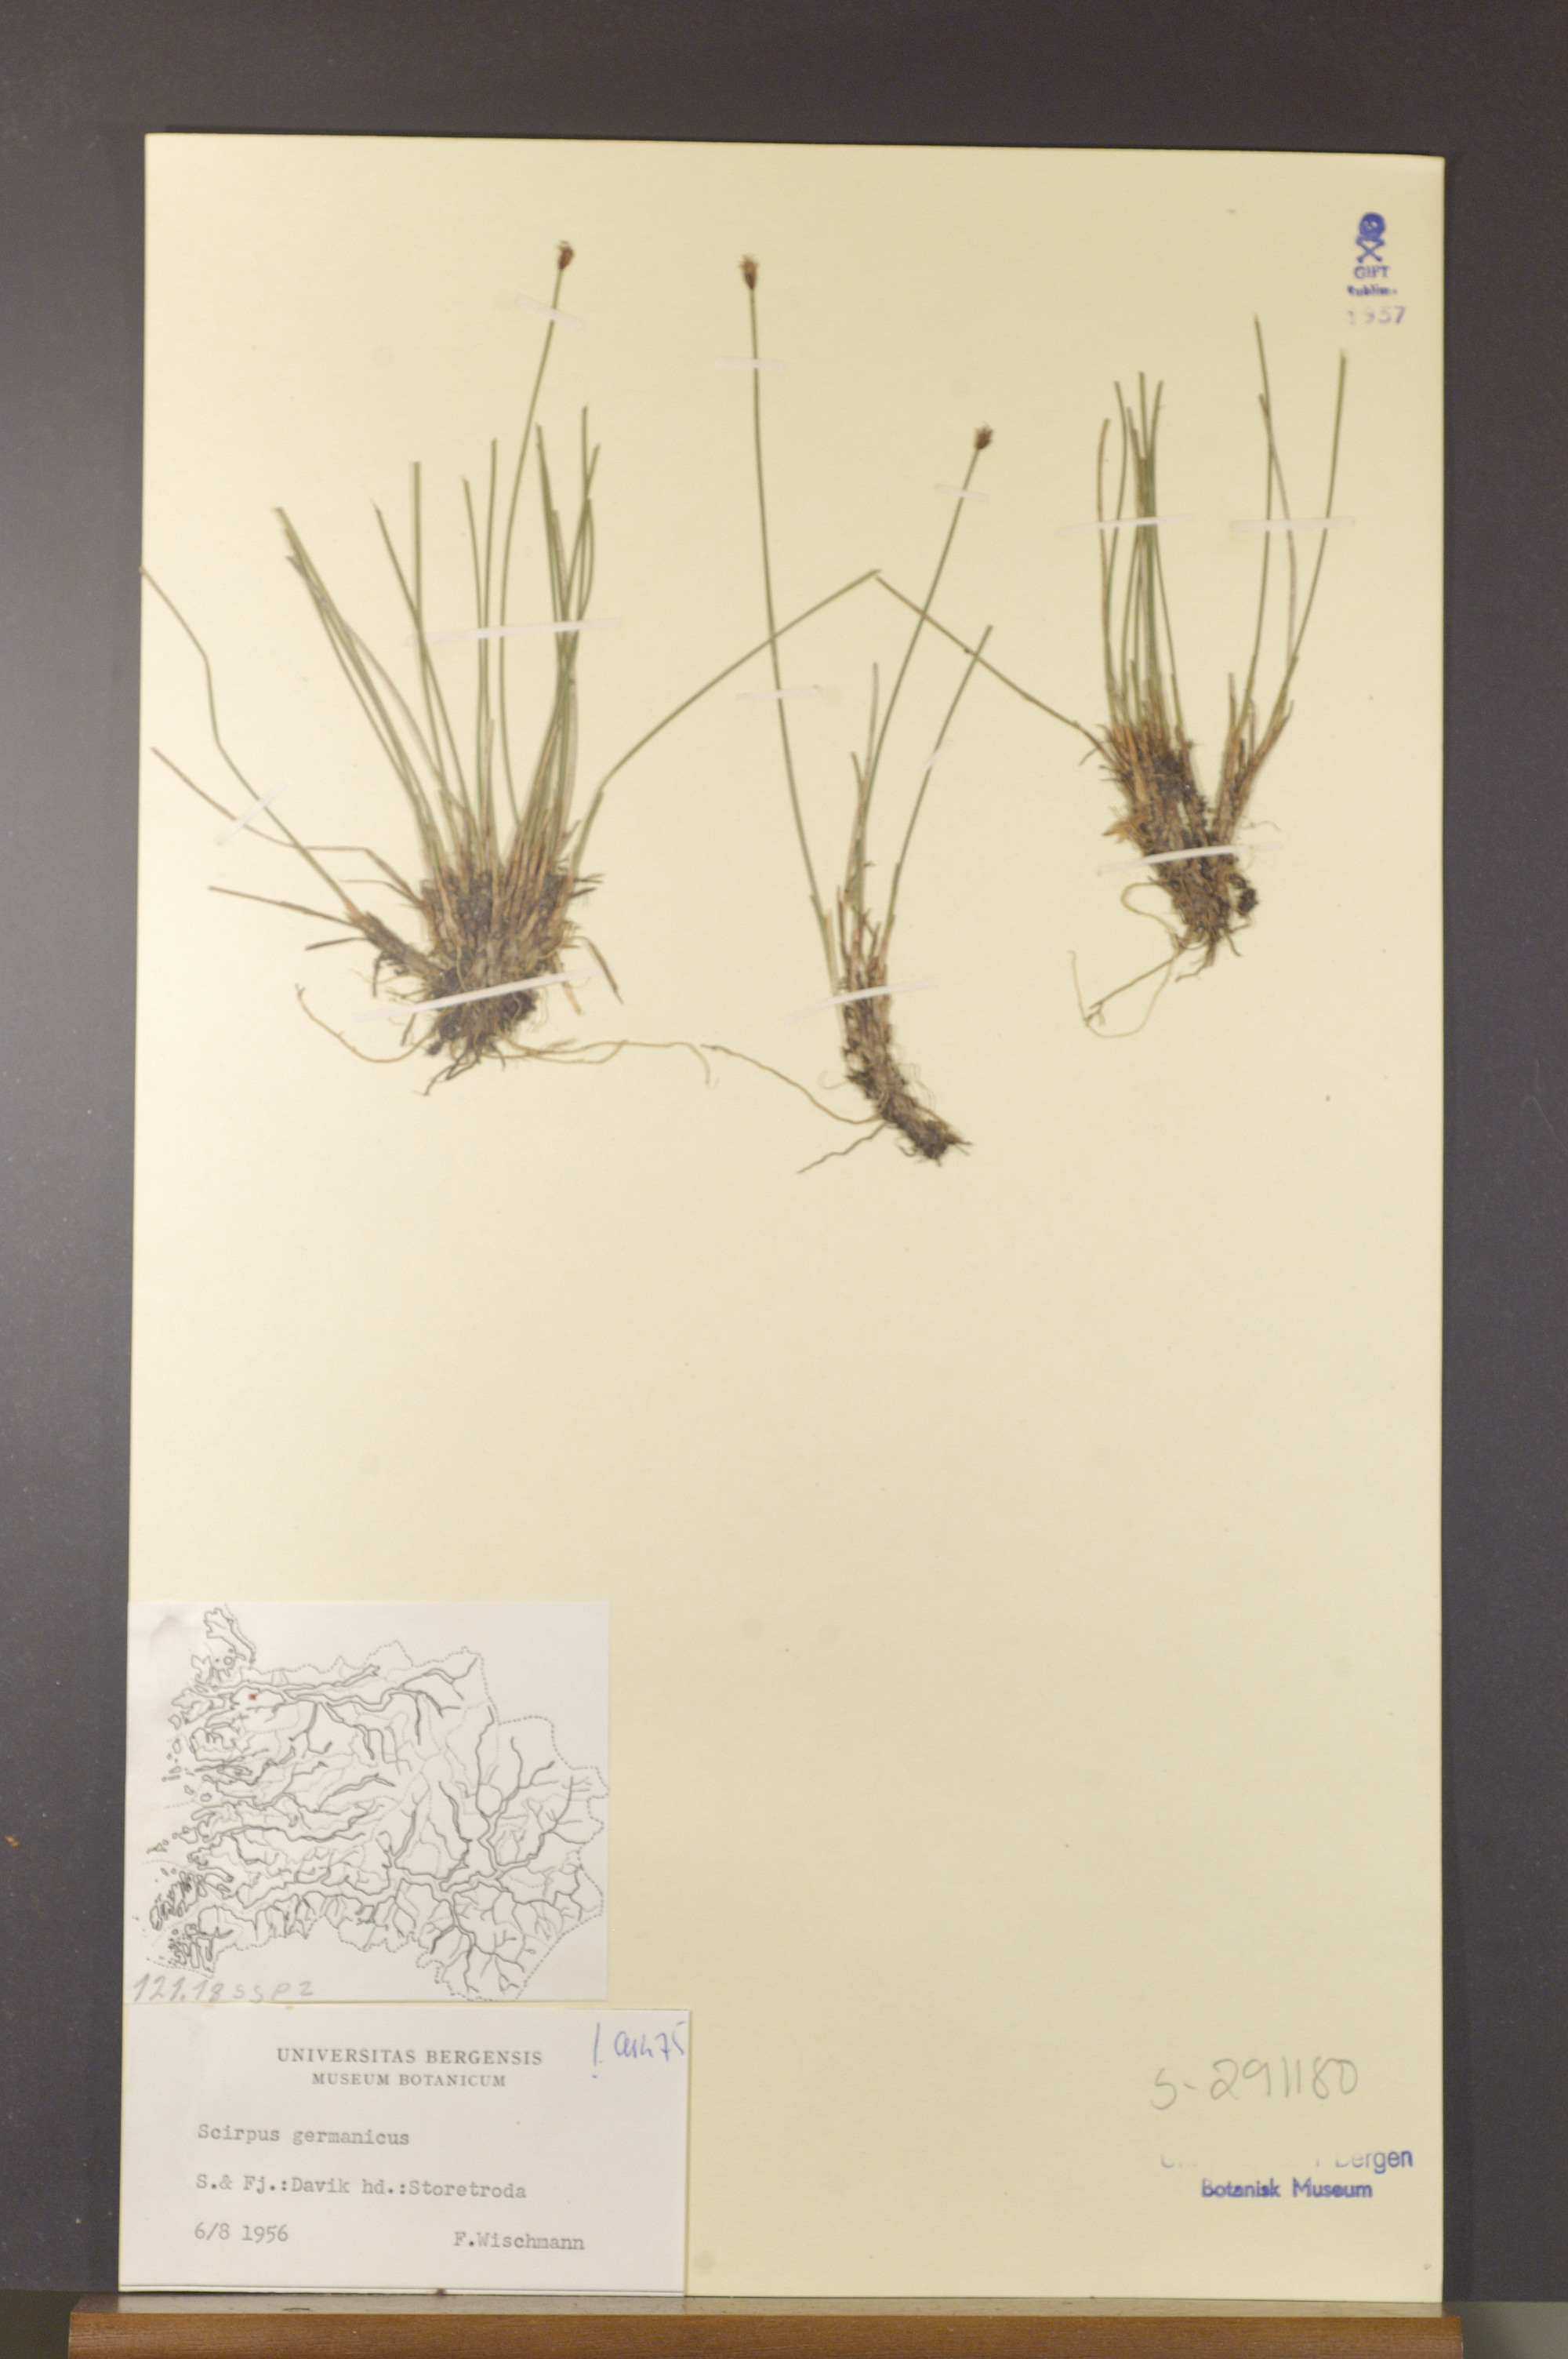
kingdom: Plantae
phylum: Tracheophyta
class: Liliopsida
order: Poales
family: Cyperaceae
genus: Trichophorum
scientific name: Trichophorum cespitosum
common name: Cespitose bulrush
